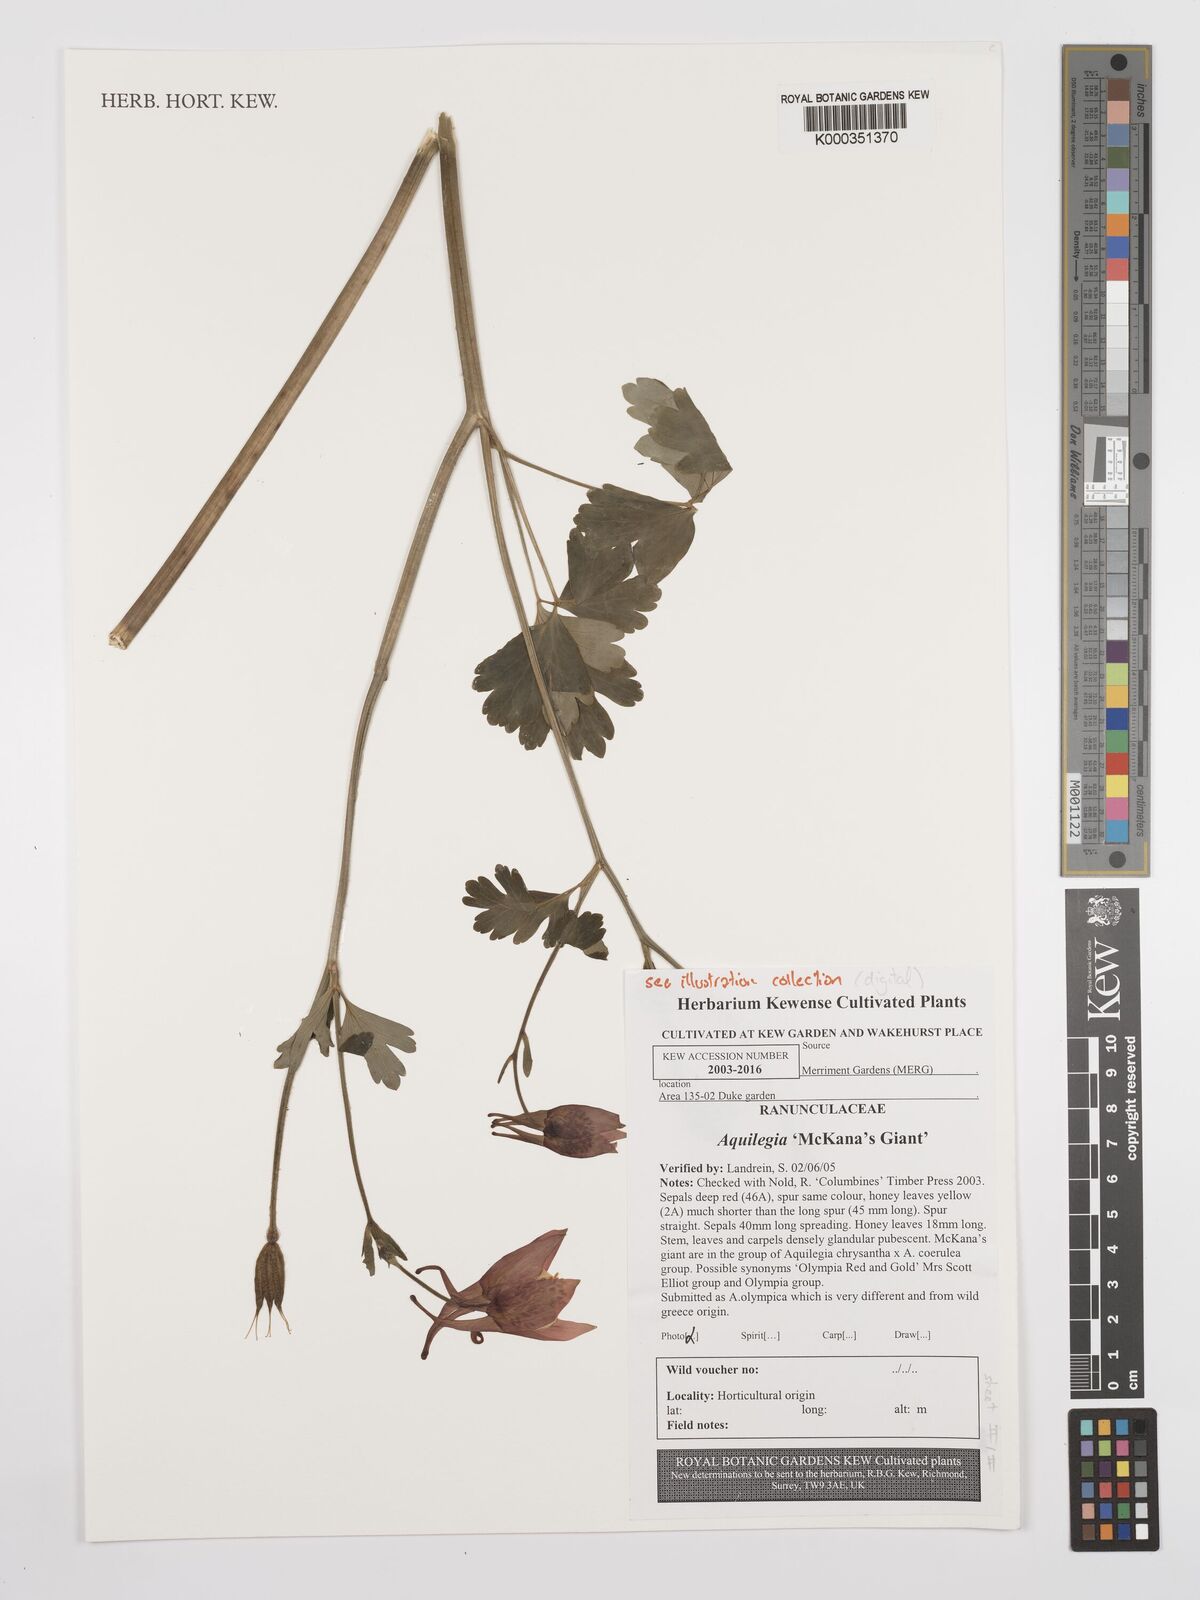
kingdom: Plantae
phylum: Tracheophyta
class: Magnoliopsida
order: Ranunculales
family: Ranunculaceae
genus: Aquilegia
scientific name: Aquilegia
